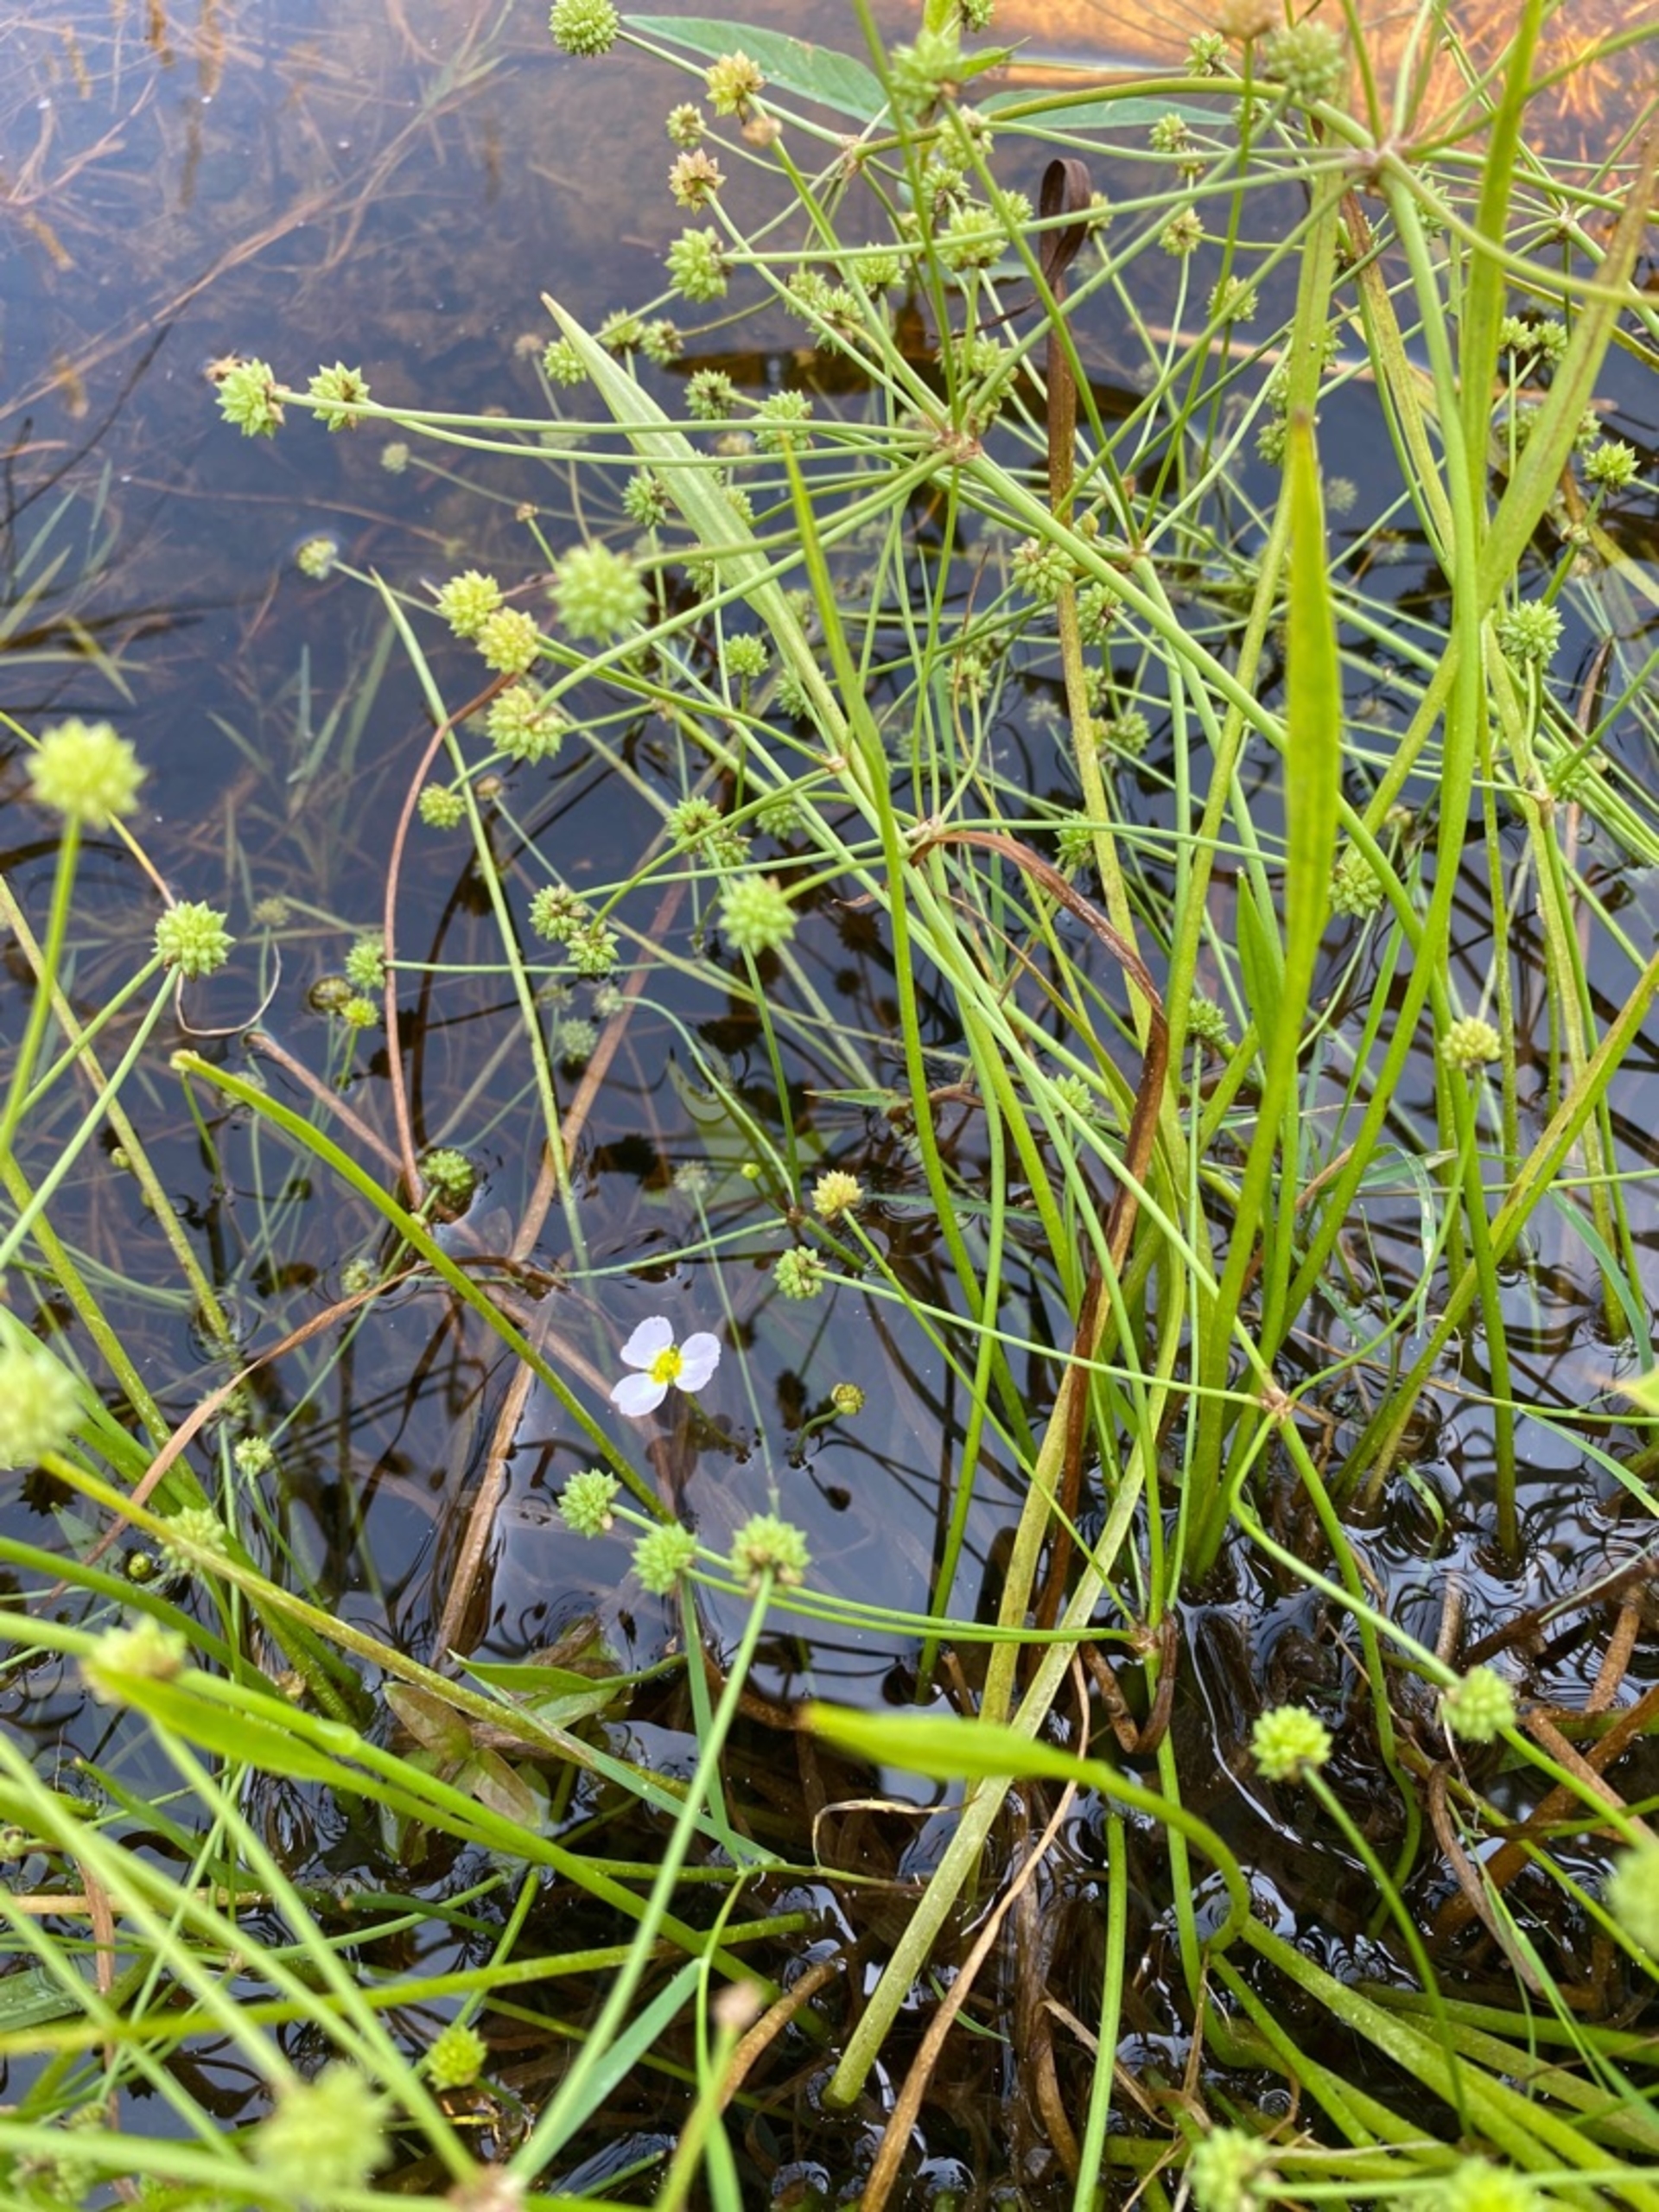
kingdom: Plantae
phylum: Tracheophyta
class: Liliopsida
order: Alismatales
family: Alismataceae
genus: Baldellia
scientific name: Baldellia ranunculoides
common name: Søpryd
